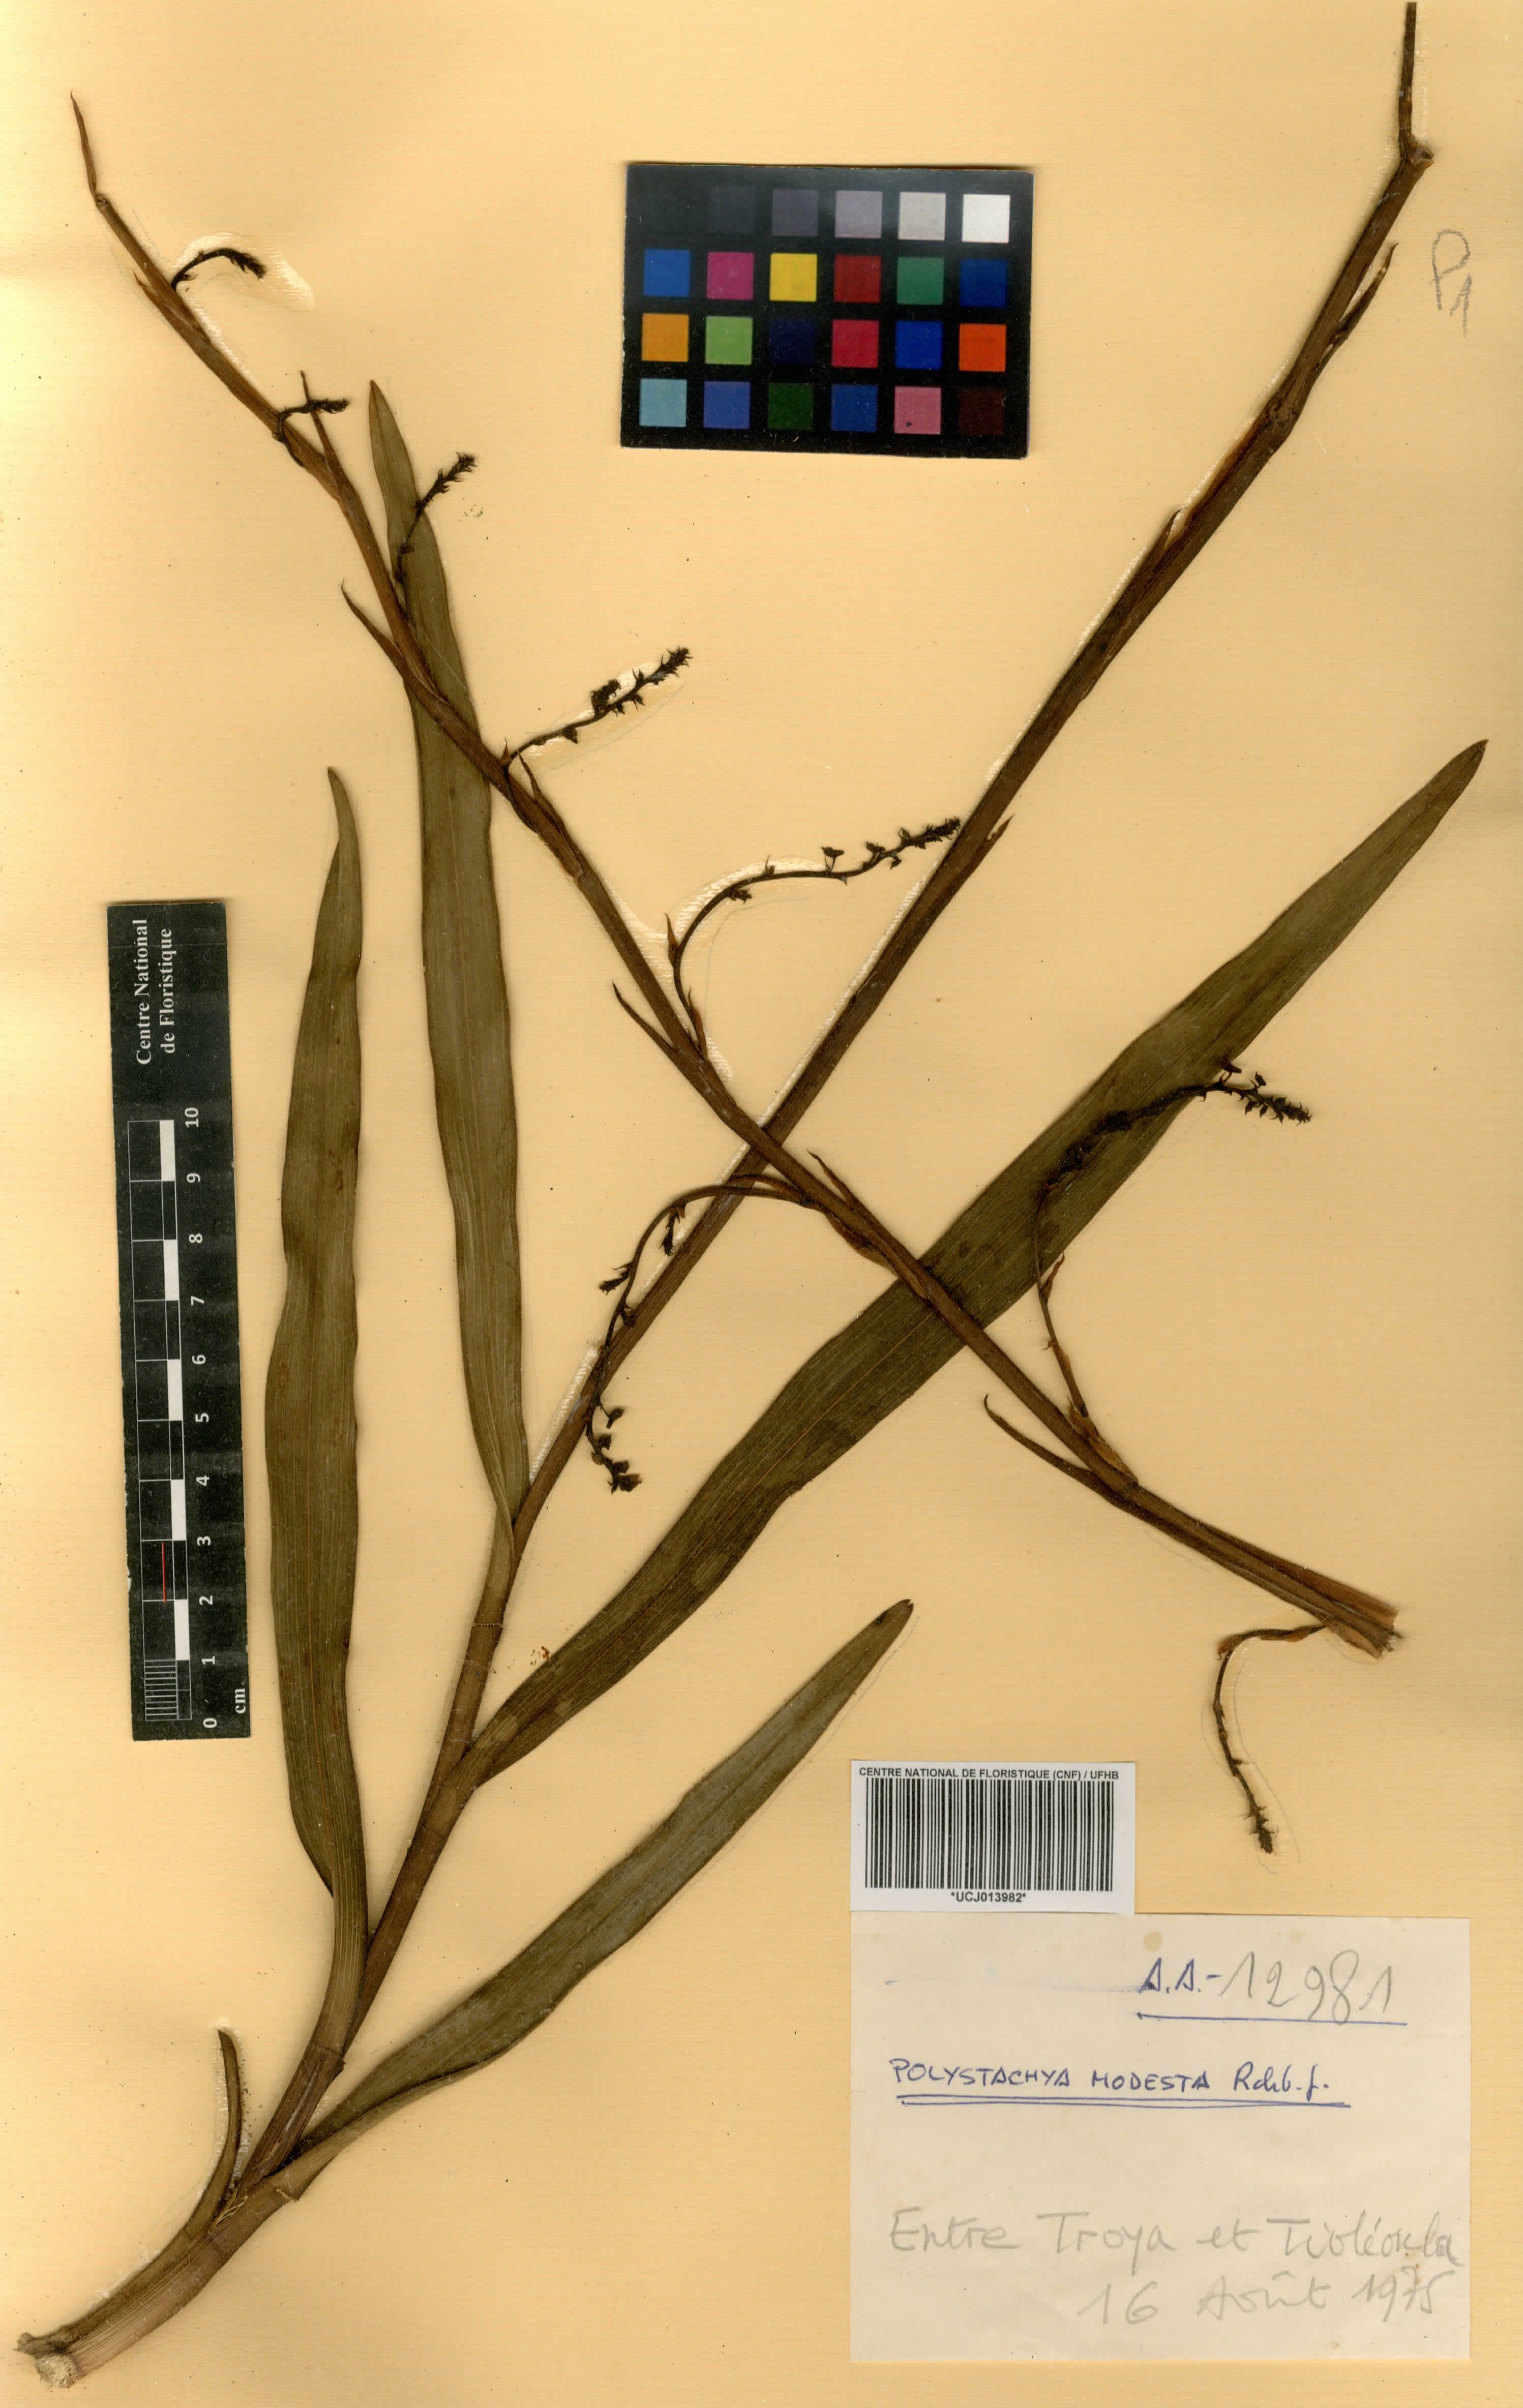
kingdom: Plantae
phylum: Tracheophyta
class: Liliopsida
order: Asparagales
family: Orchidaceae
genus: Polystachya
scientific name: Polystachya modesta
